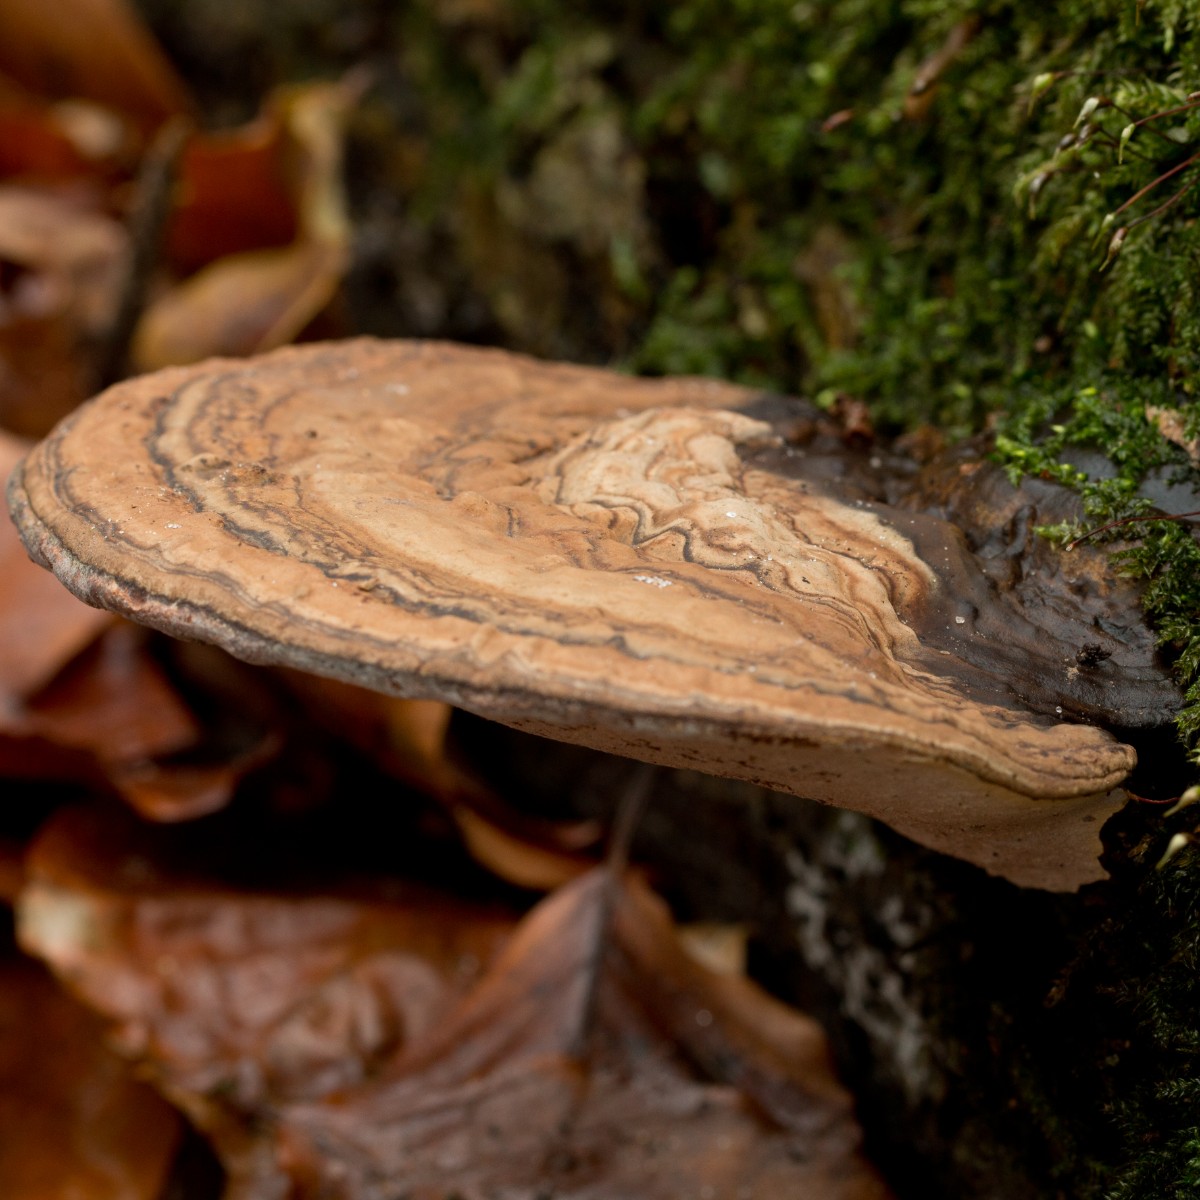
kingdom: Fungi
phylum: Basidiomycota
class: Agaricomycetes
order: Polyporales
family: Polyporaceae
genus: Ganoderma
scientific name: Ganoderma applanatum
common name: flad lakporesvamp
